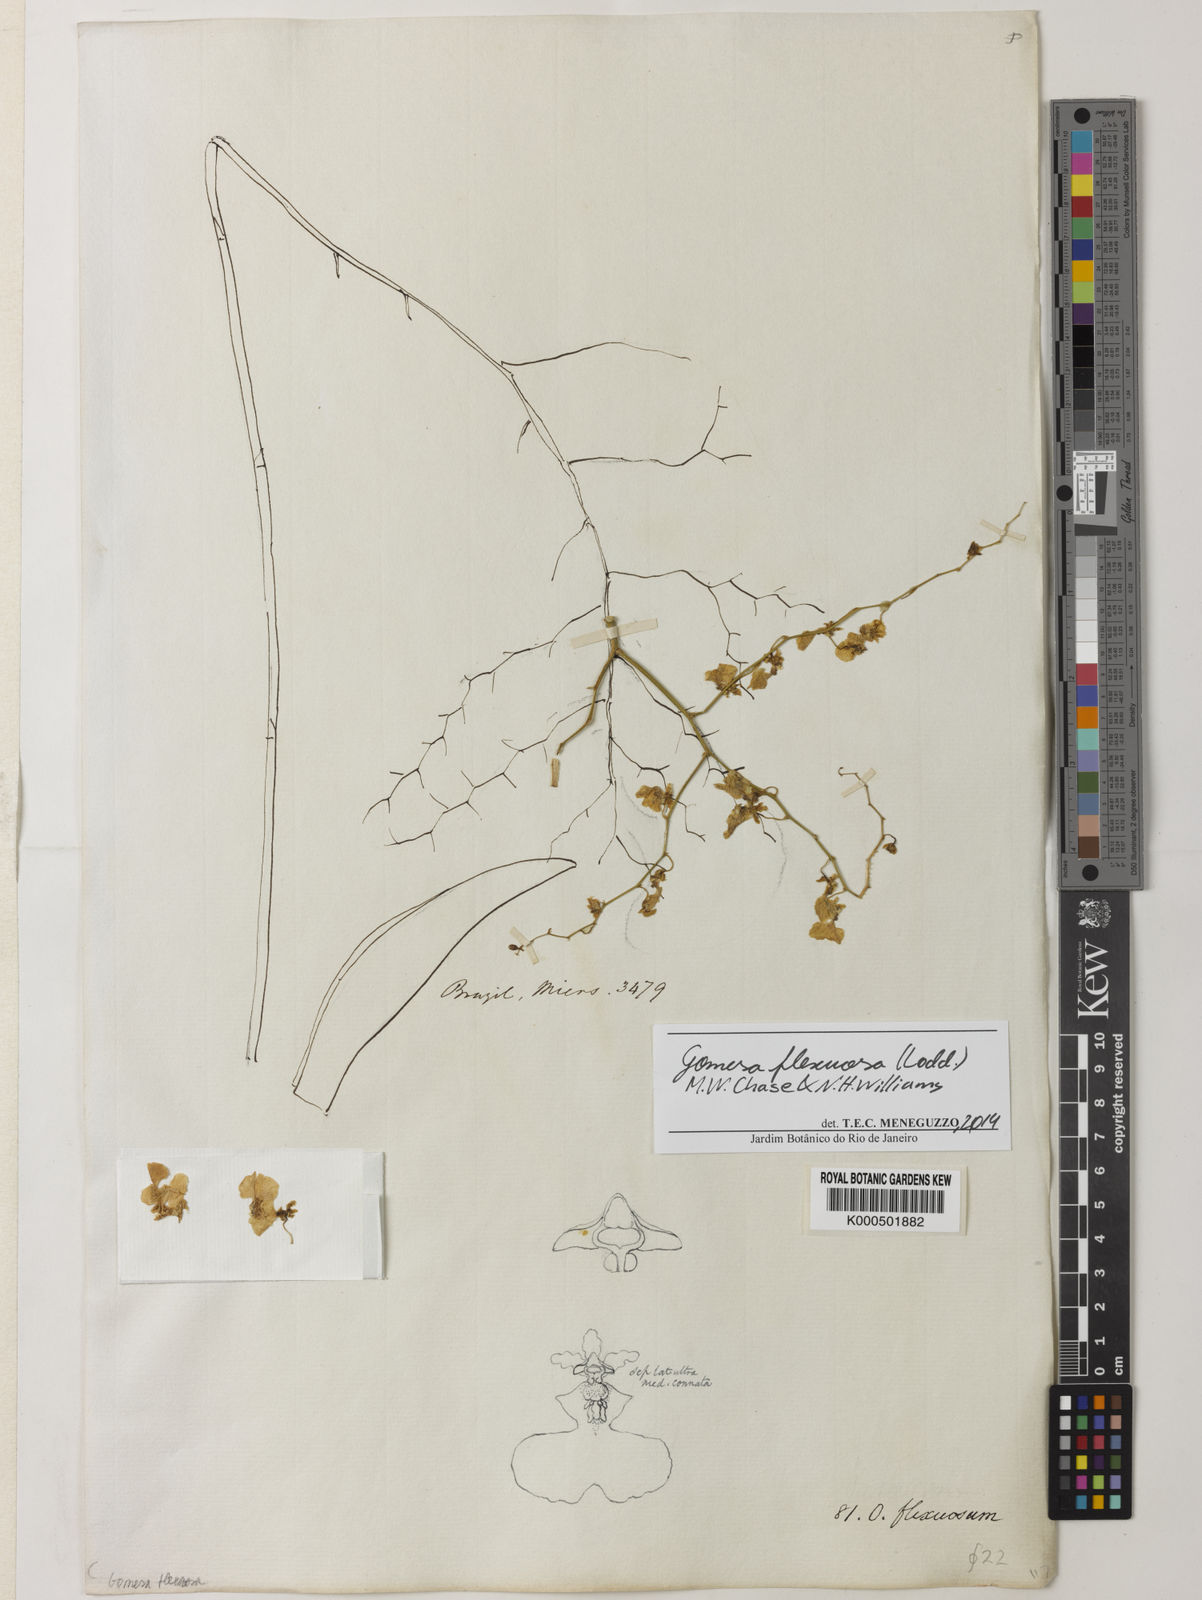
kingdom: Plantae
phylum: Tracheophyta
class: Liliopsida
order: Asparagales
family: Orchidaceae
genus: Gomesa
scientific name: Gomesa flexuosa
